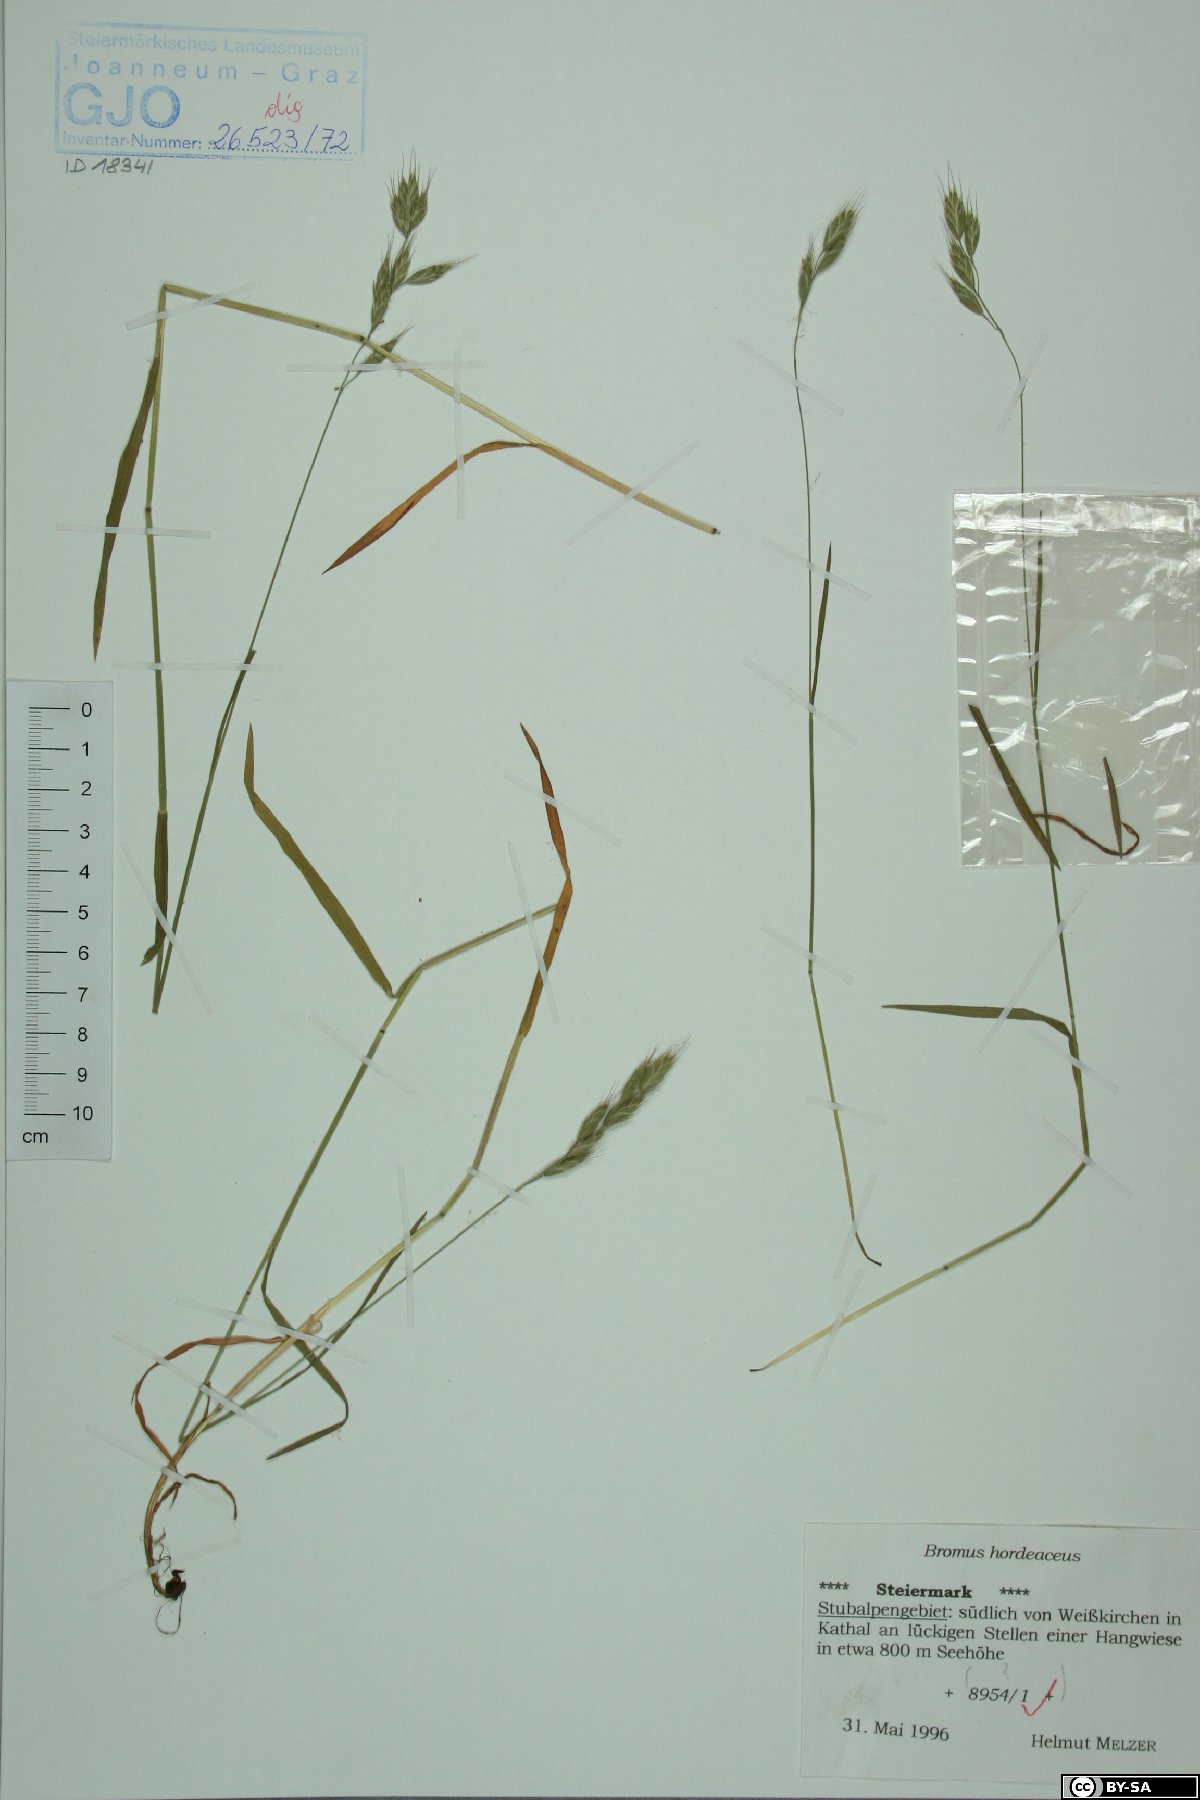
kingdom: Plantae
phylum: Tracheophyta
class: Liliopsida
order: Poales
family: Poaceae
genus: Bromus
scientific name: Bromus hordeaceus
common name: Soft brome
